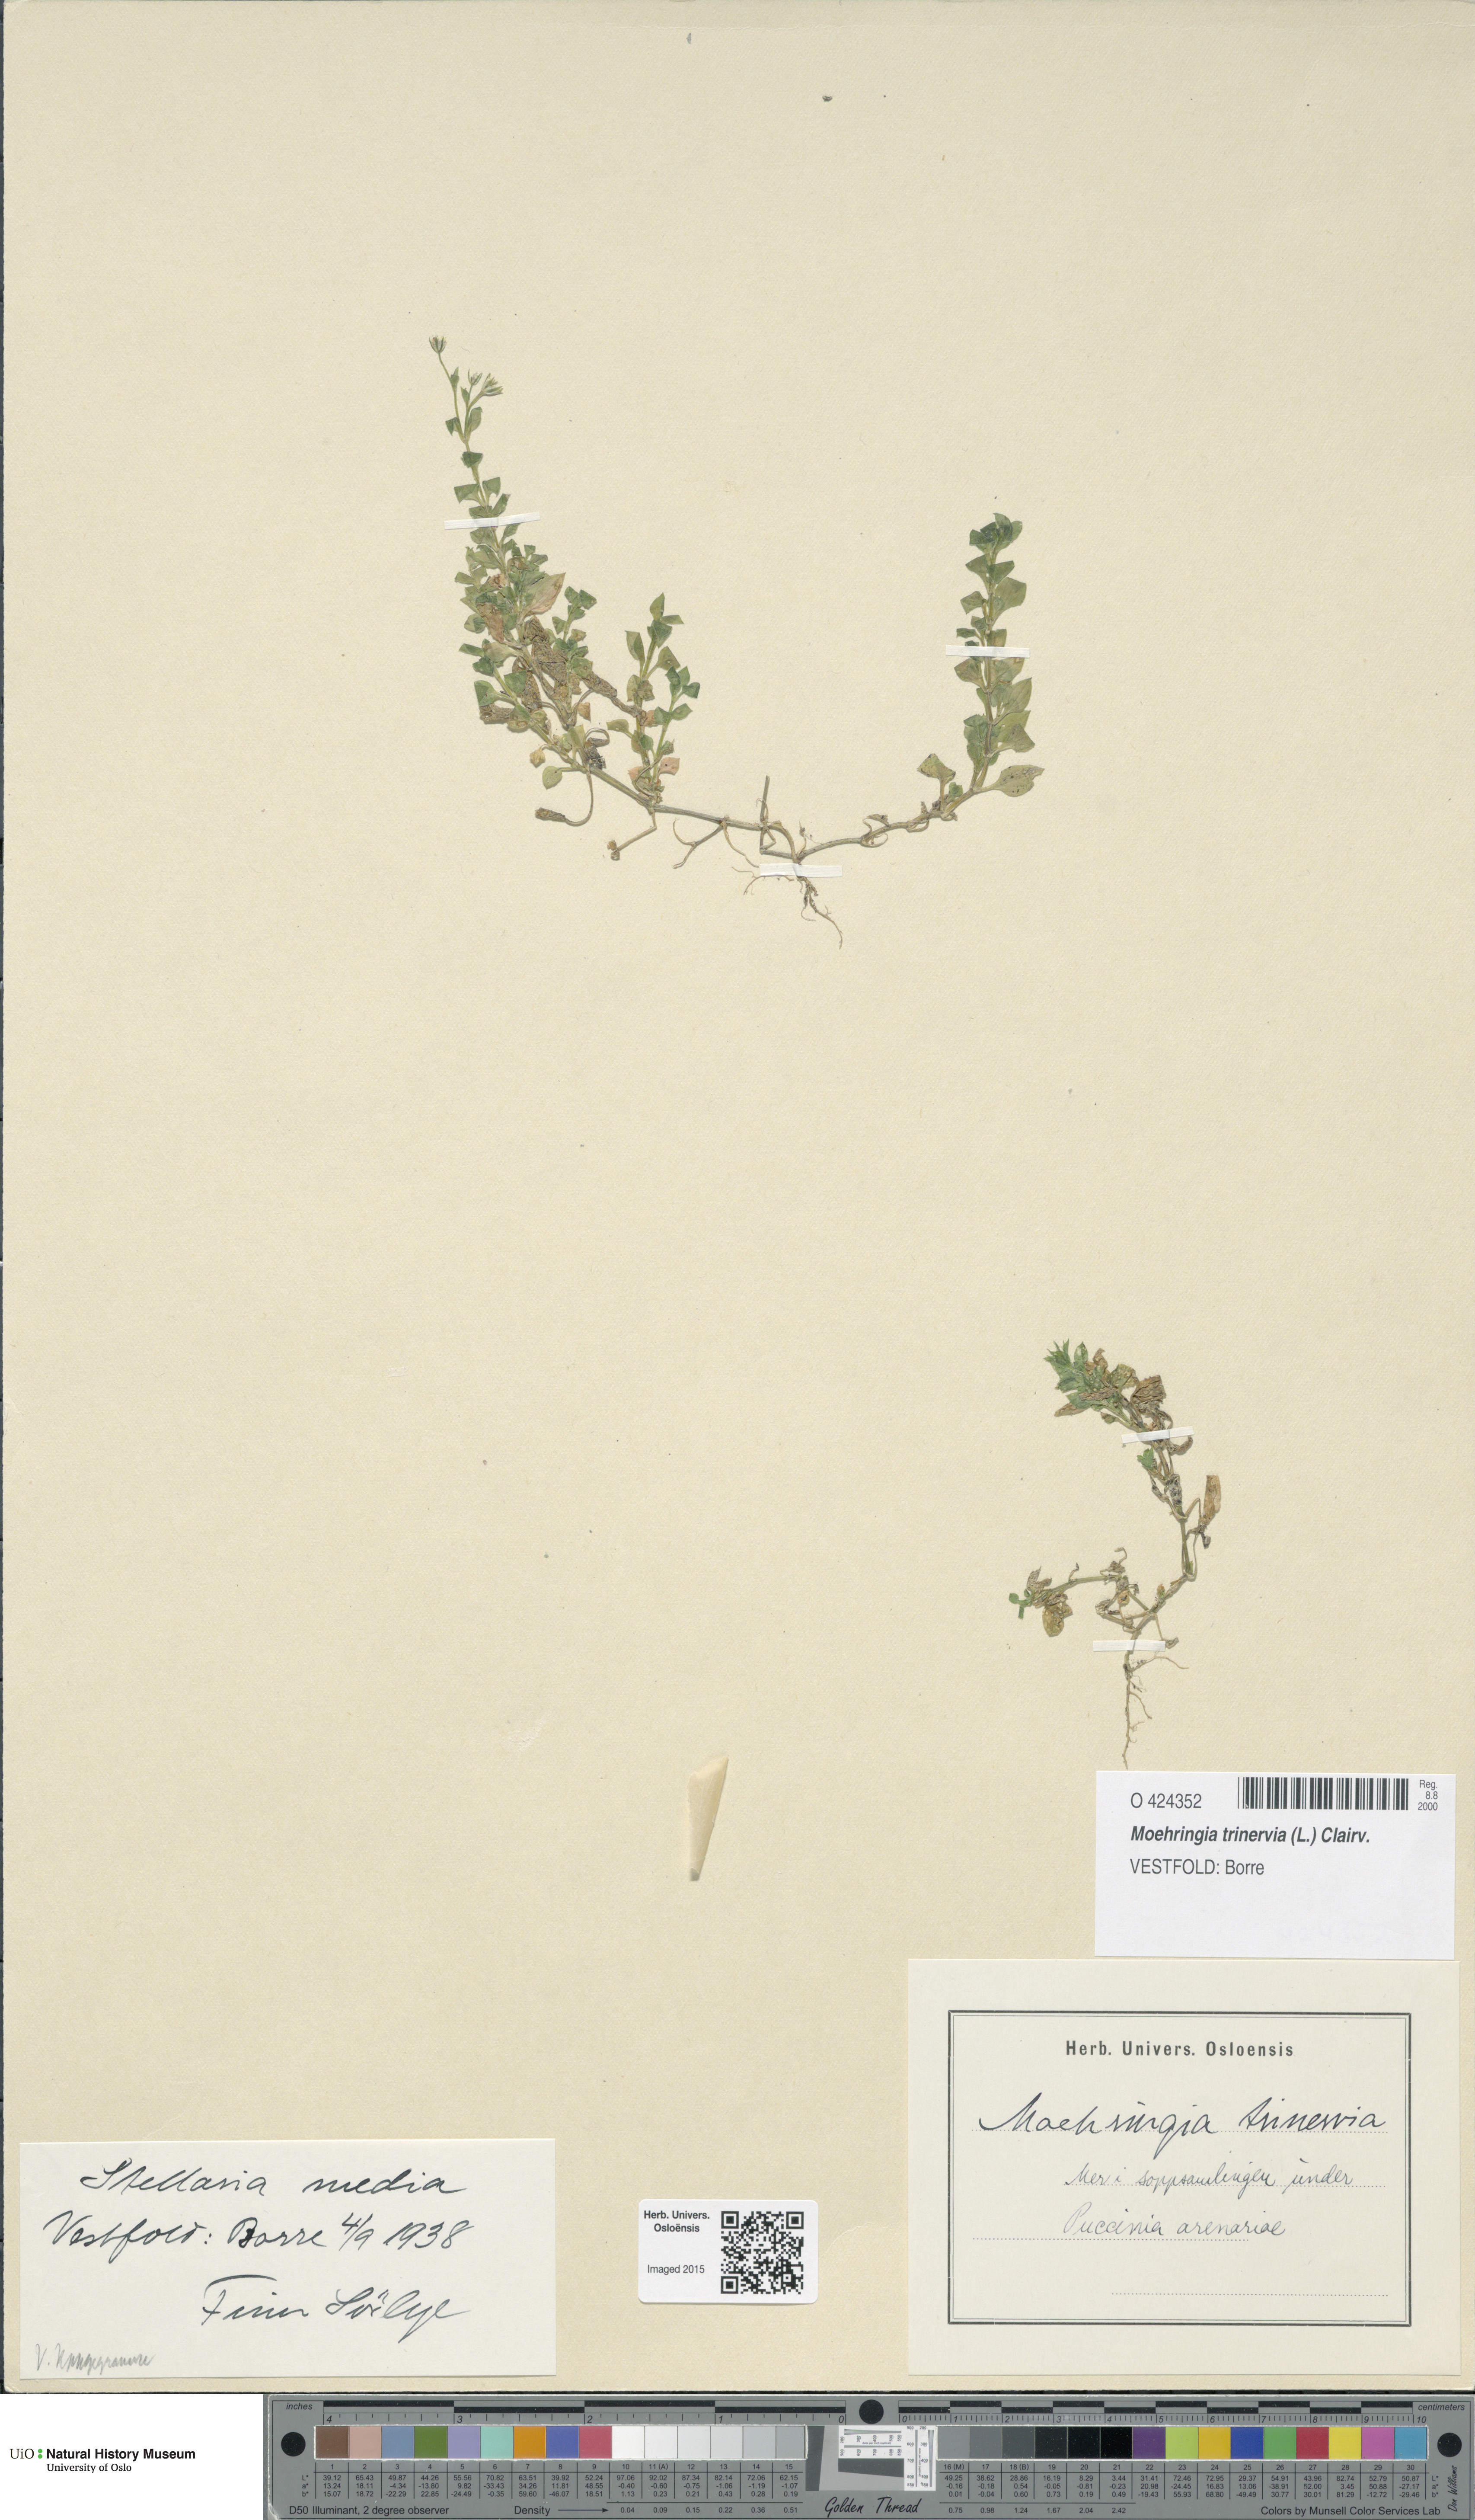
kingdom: Plantae
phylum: Tracheophyta
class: Magnoliopsida
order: Caryophyllales
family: Caryophyllaceae
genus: Moehringia
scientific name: Moehringia trinervia
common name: Three-nerved sandwort
